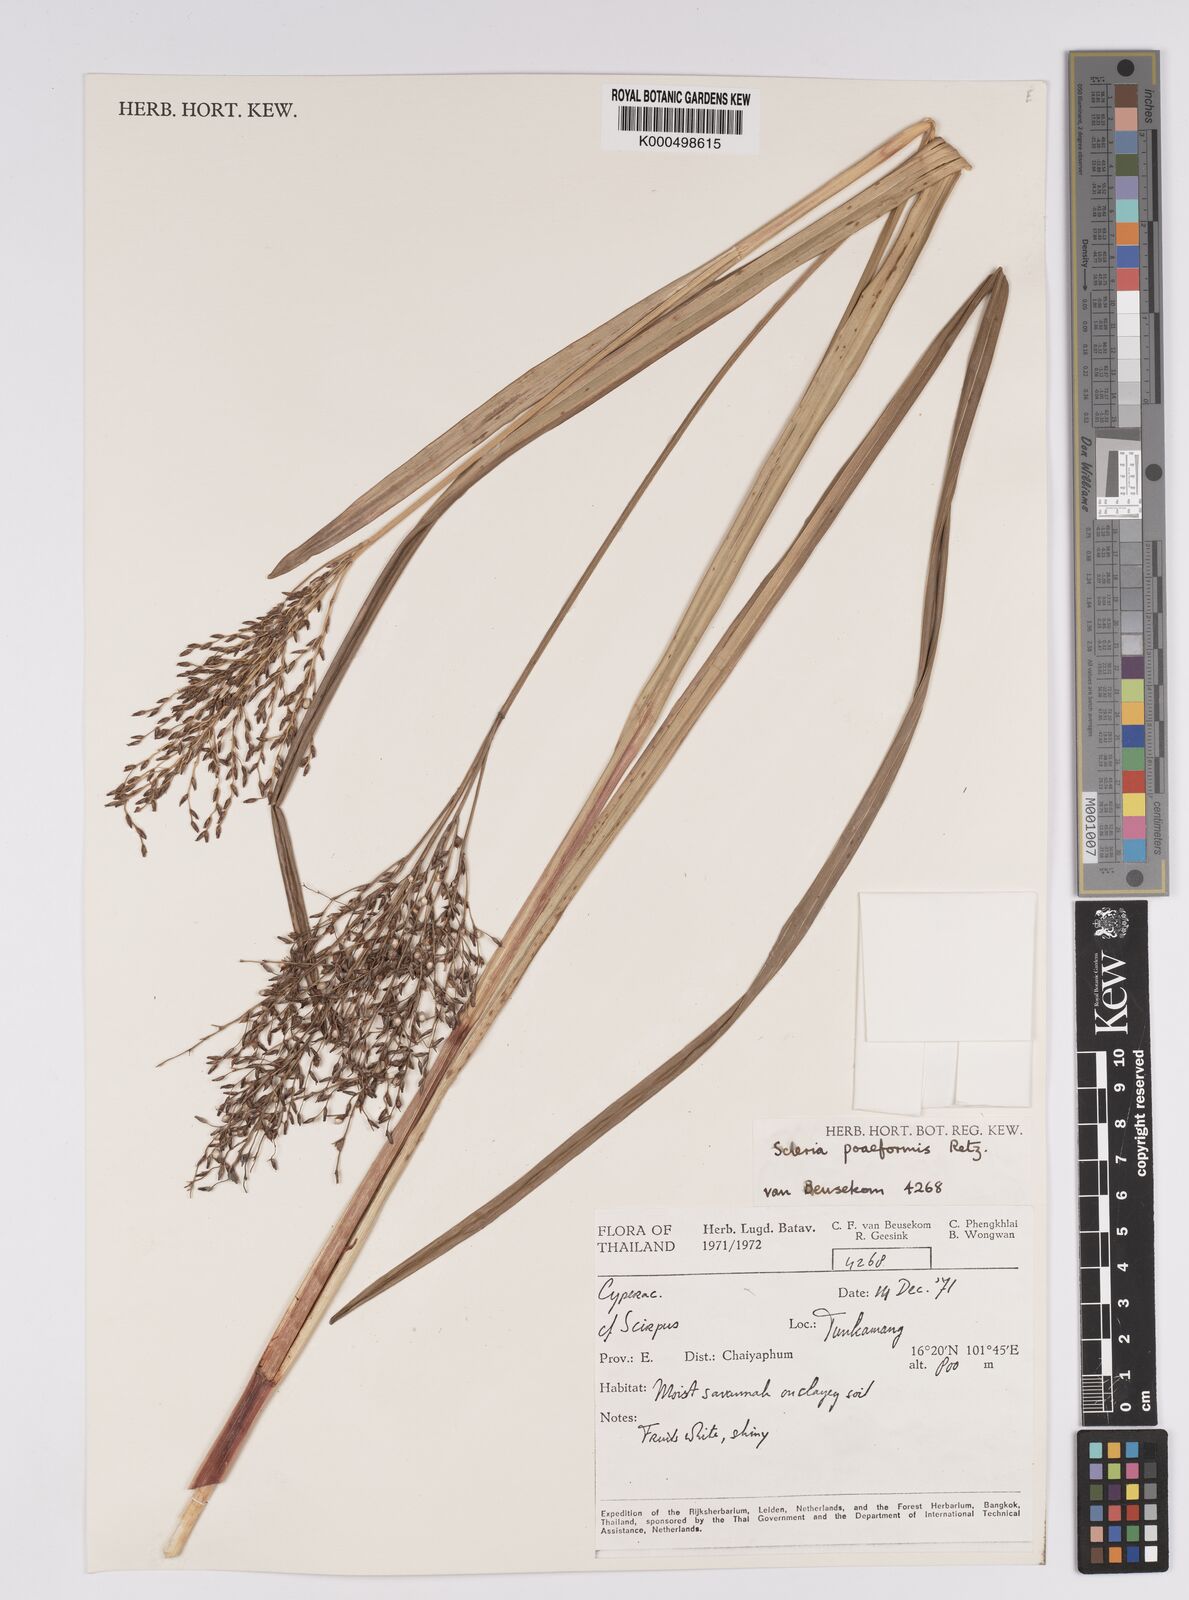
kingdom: Plantae
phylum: Tracheophyta
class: Liliopsida
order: Poales
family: Cyperaceae
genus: Scleria
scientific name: Scleria poiformis
